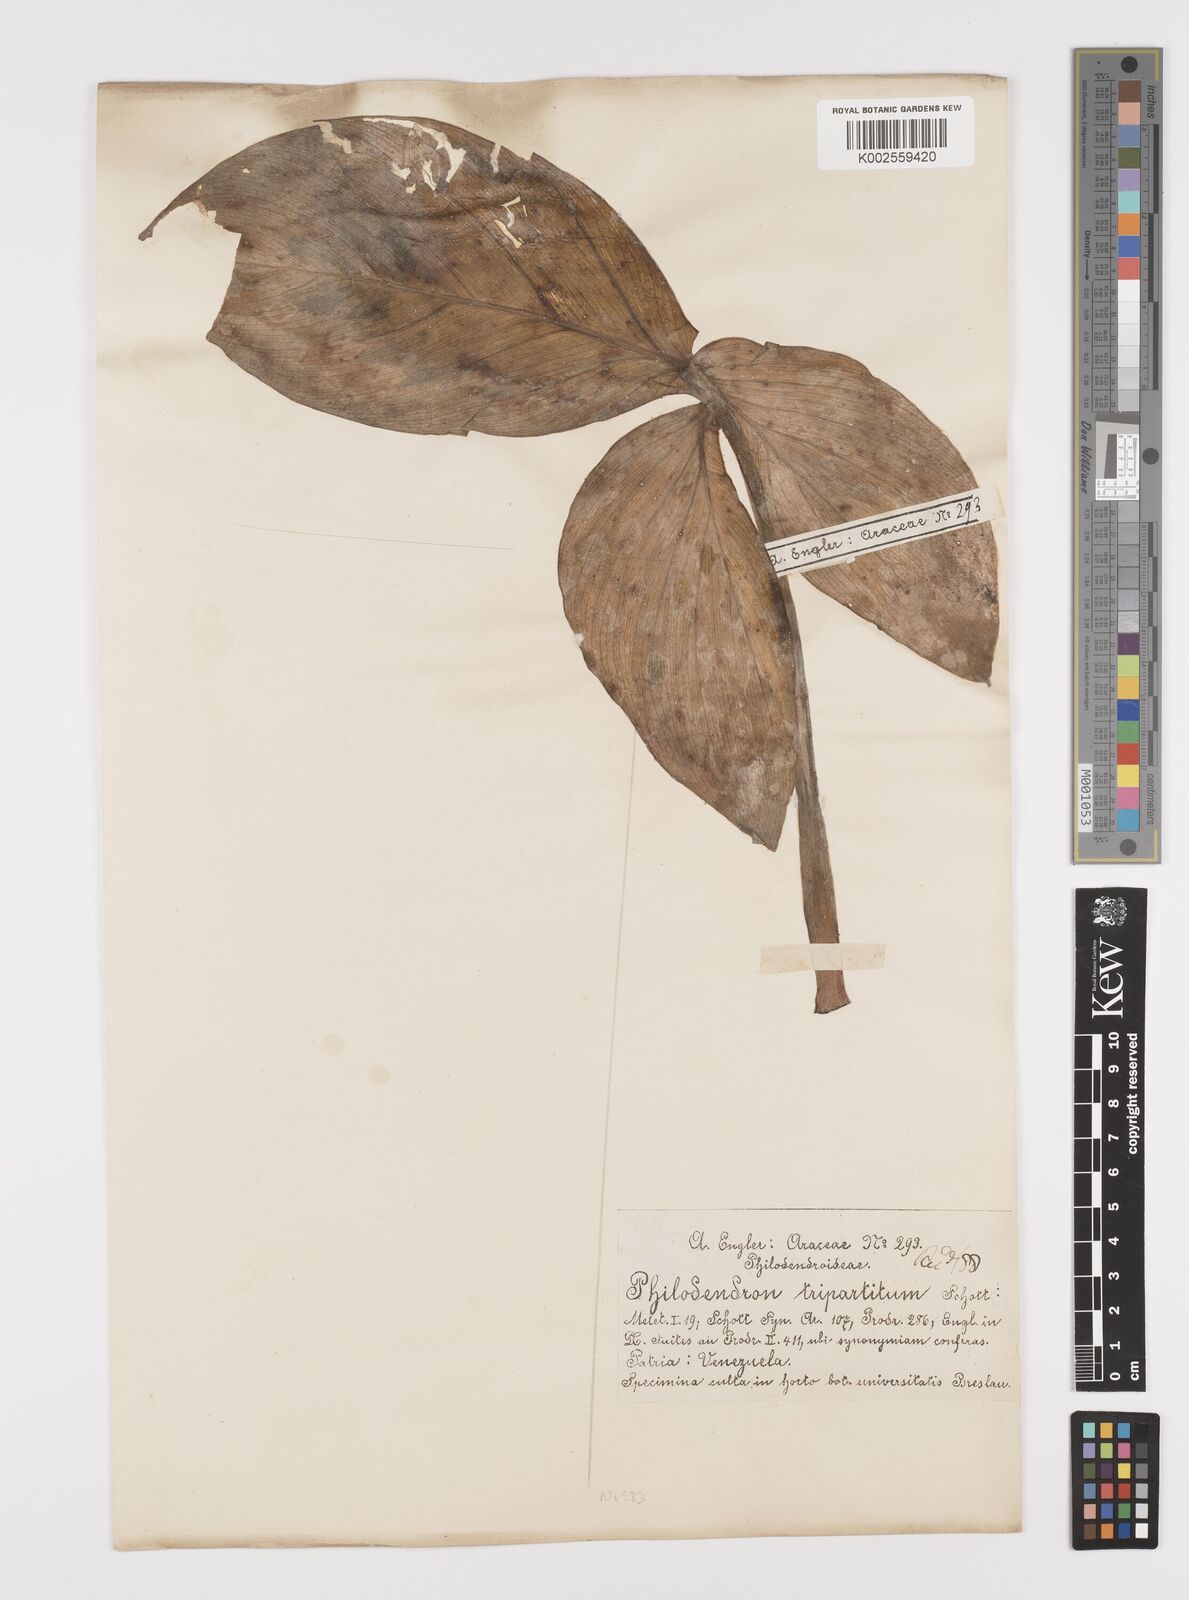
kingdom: Plantae
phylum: Tracheophyta
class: Liliopsida
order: Alismatales
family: Araceae
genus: Philodendron
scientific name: Philodendron tripartitum
